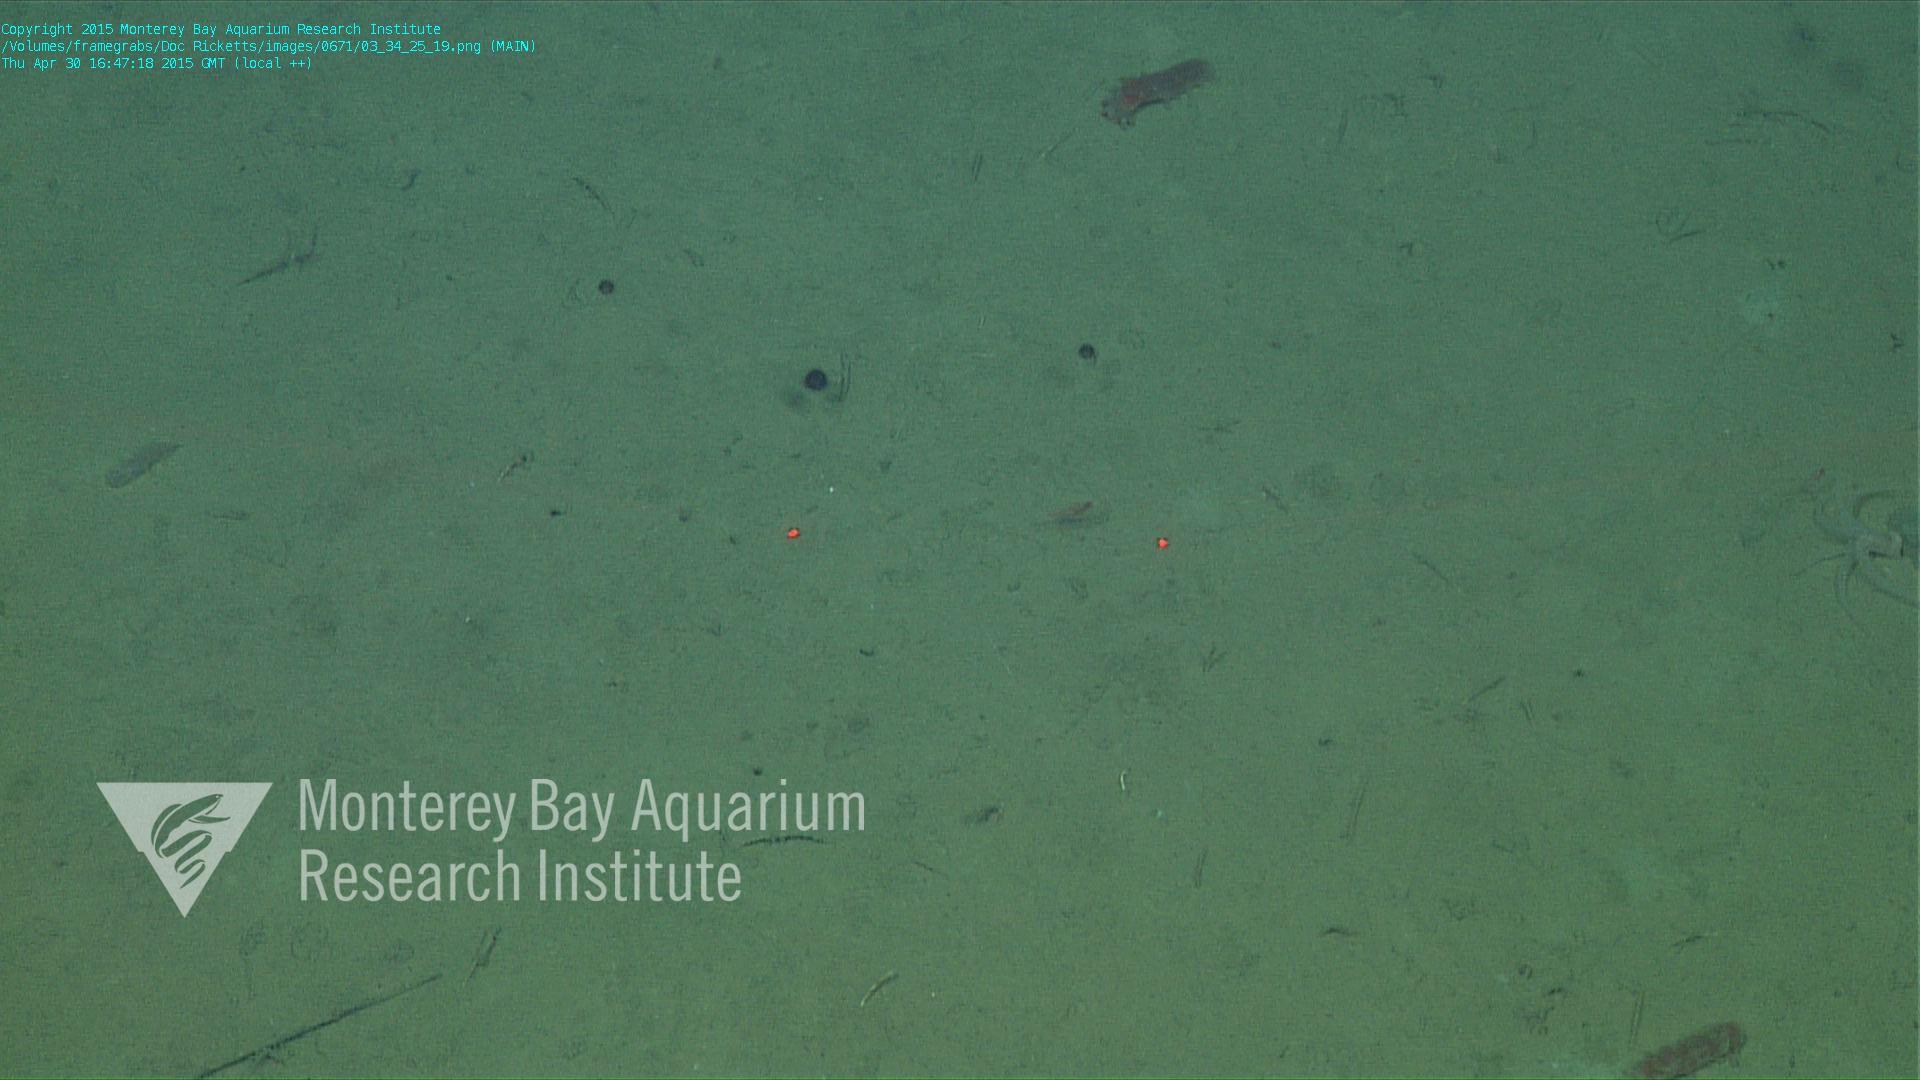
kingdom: Animalia
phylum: Cnidaria
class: Anthozoa
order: Scleralcyonacea
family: Coralliidae
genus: Bathyalcyon
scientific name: Bathyalcyon robustum
